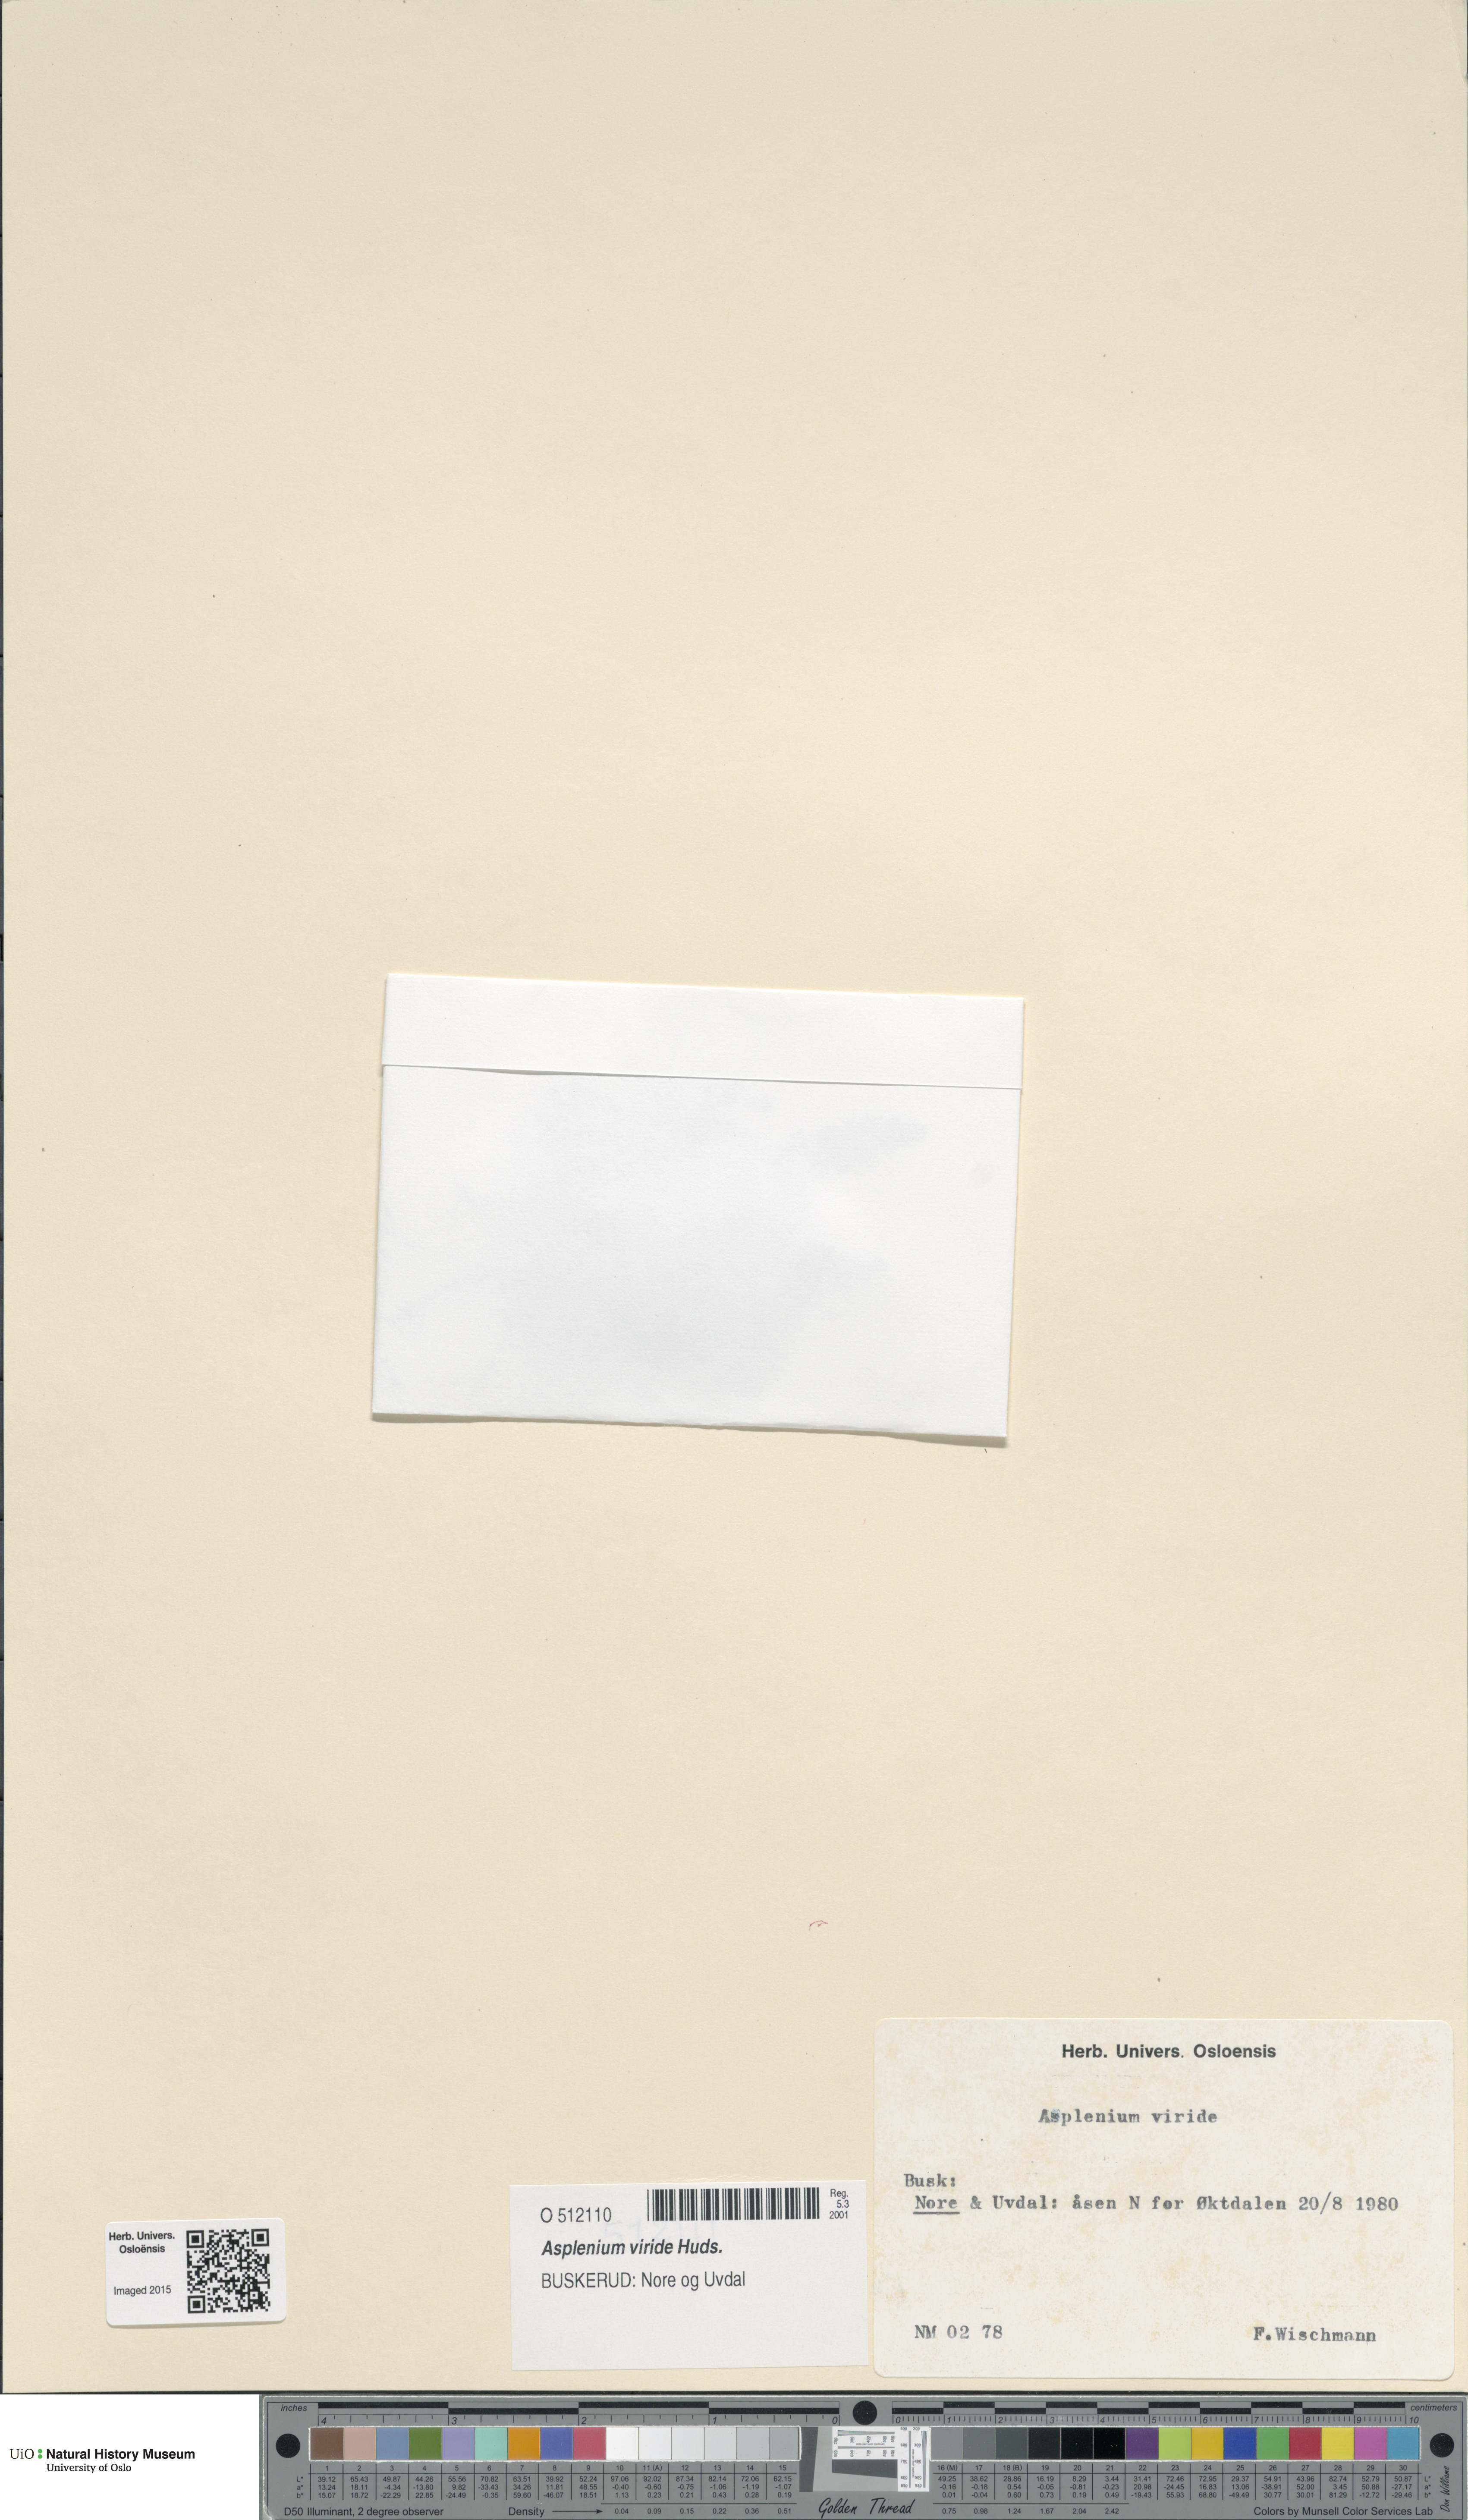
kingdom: Plantae
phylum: Tracheophyta
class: Polypodiopsida
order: Polypodiales
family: Aspleniaceae
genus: Asplenium
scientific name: Asplenium viride
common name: Green spleenwort
